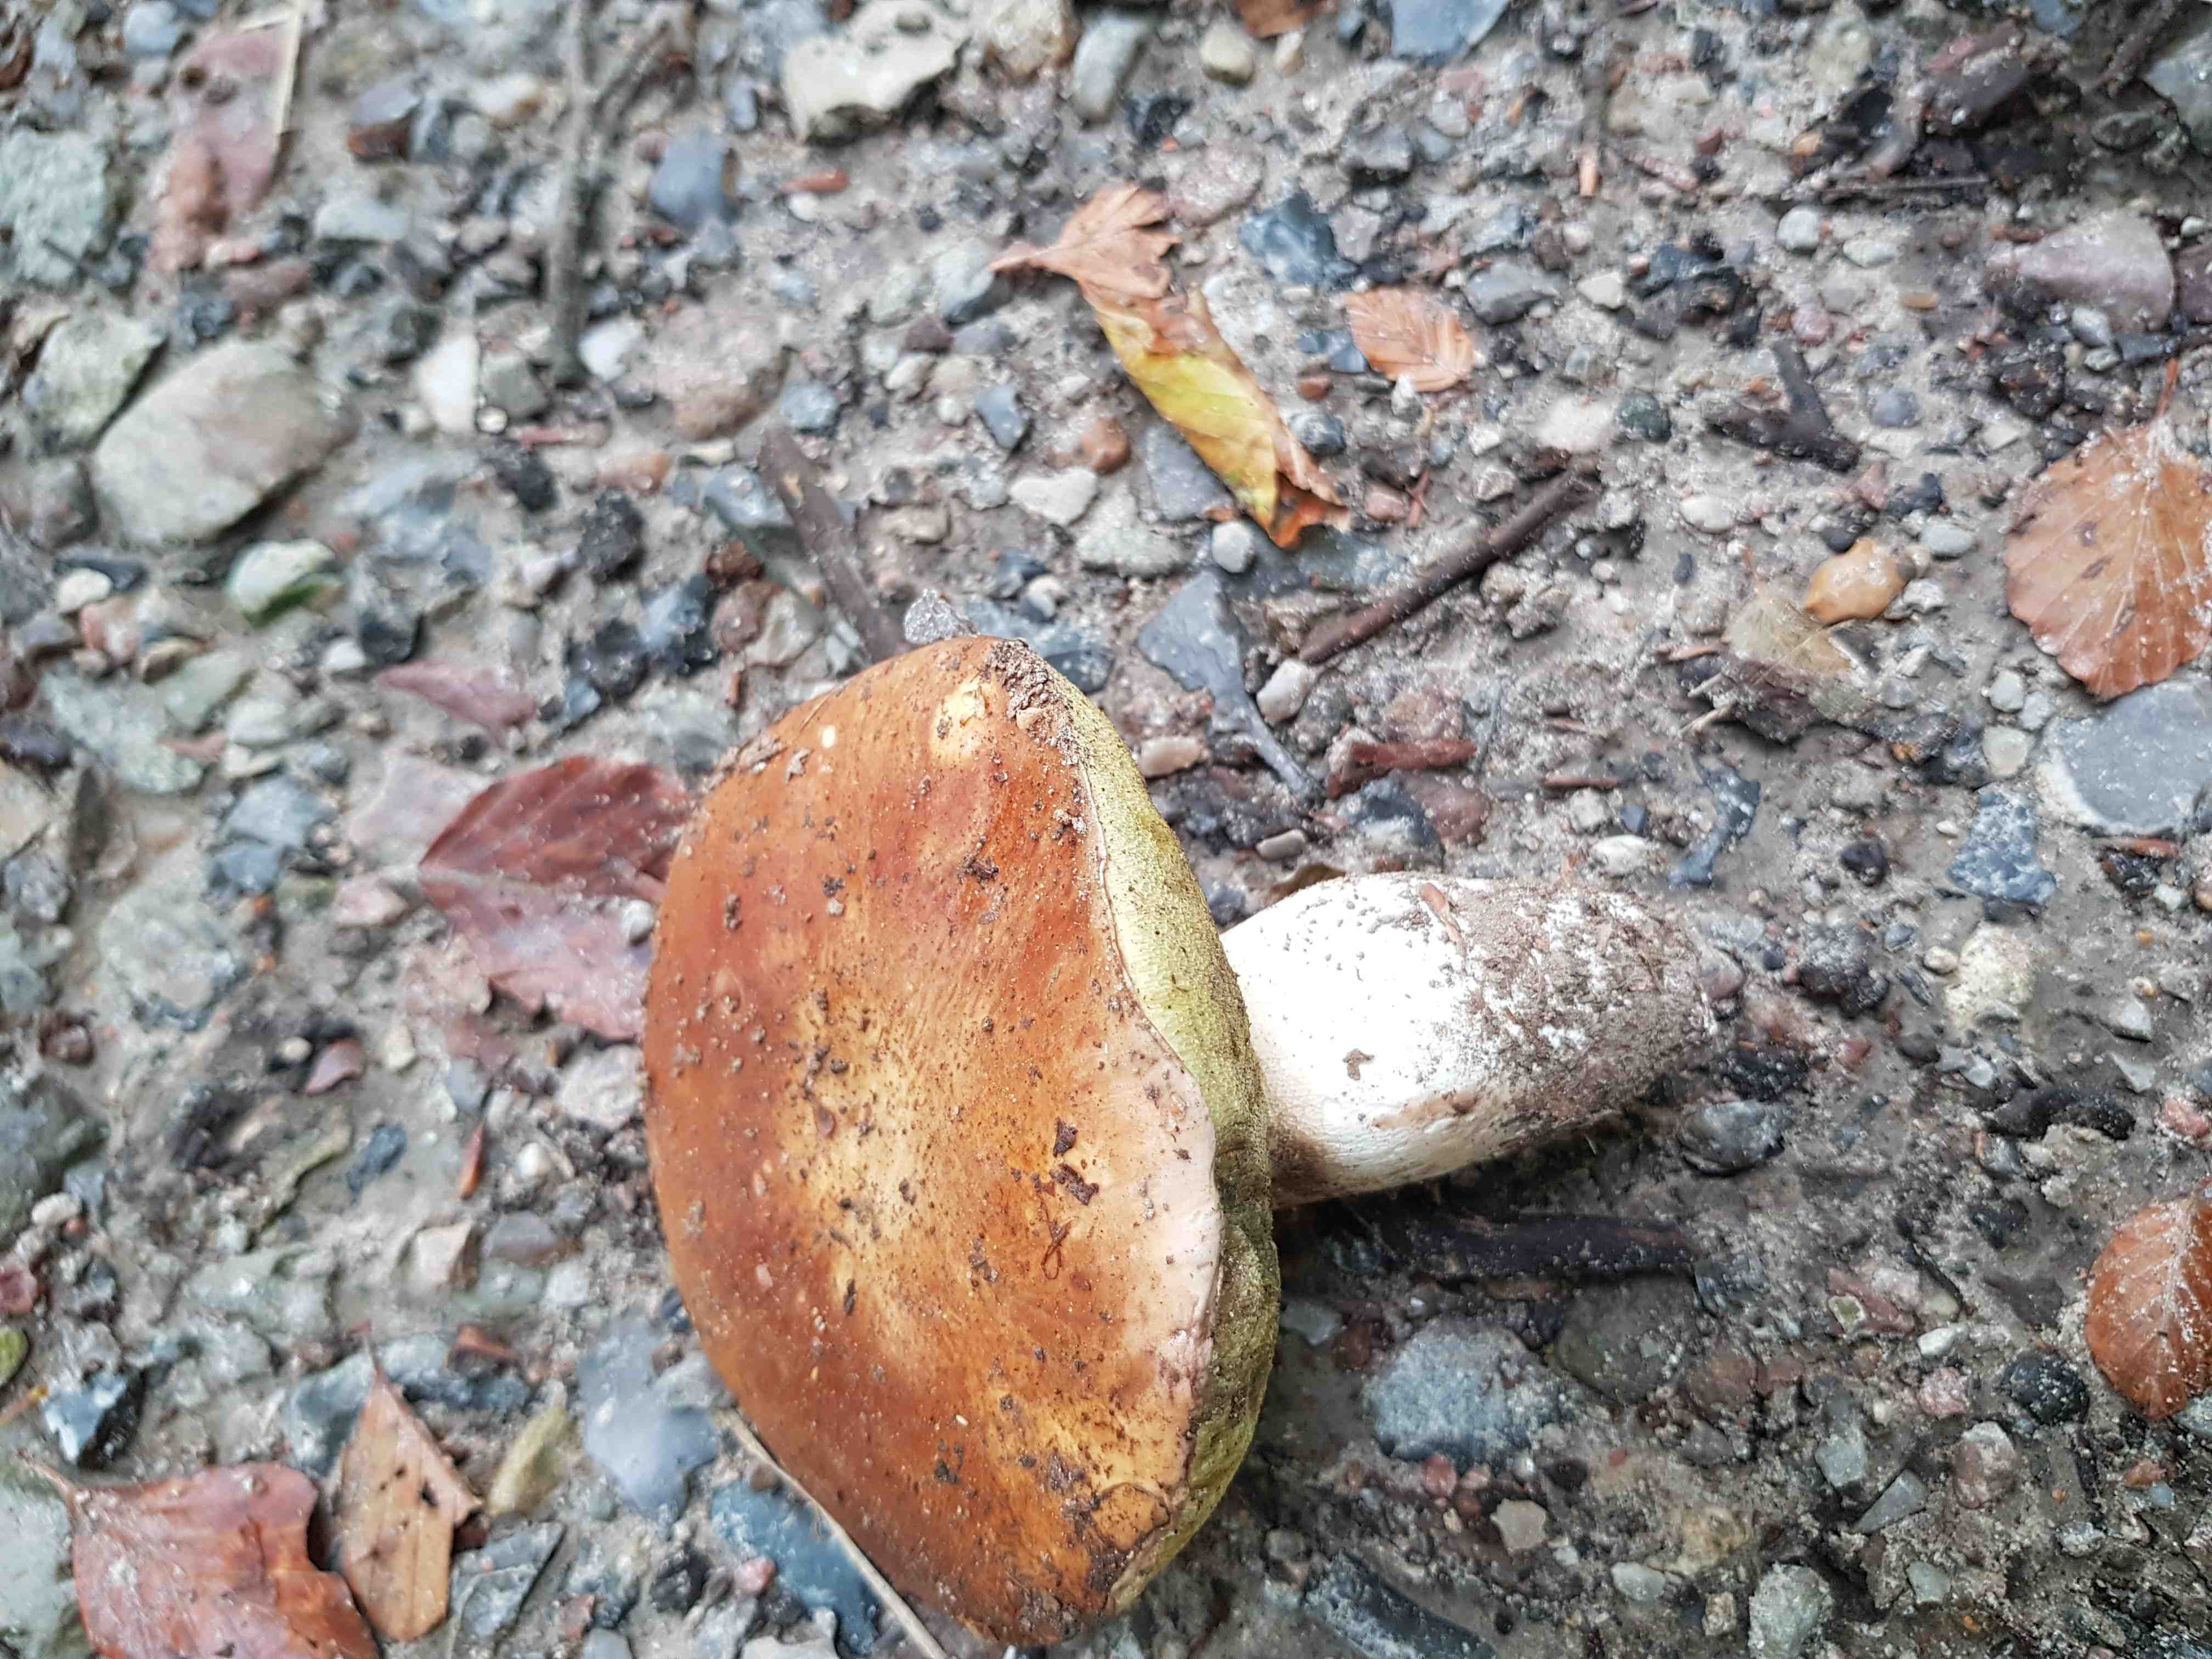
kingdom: Fungi
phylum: Basidiomycota
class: Agaricomycetes
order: Boletales
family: Boletaceae
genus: Boletus
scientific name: Boletus edulis
